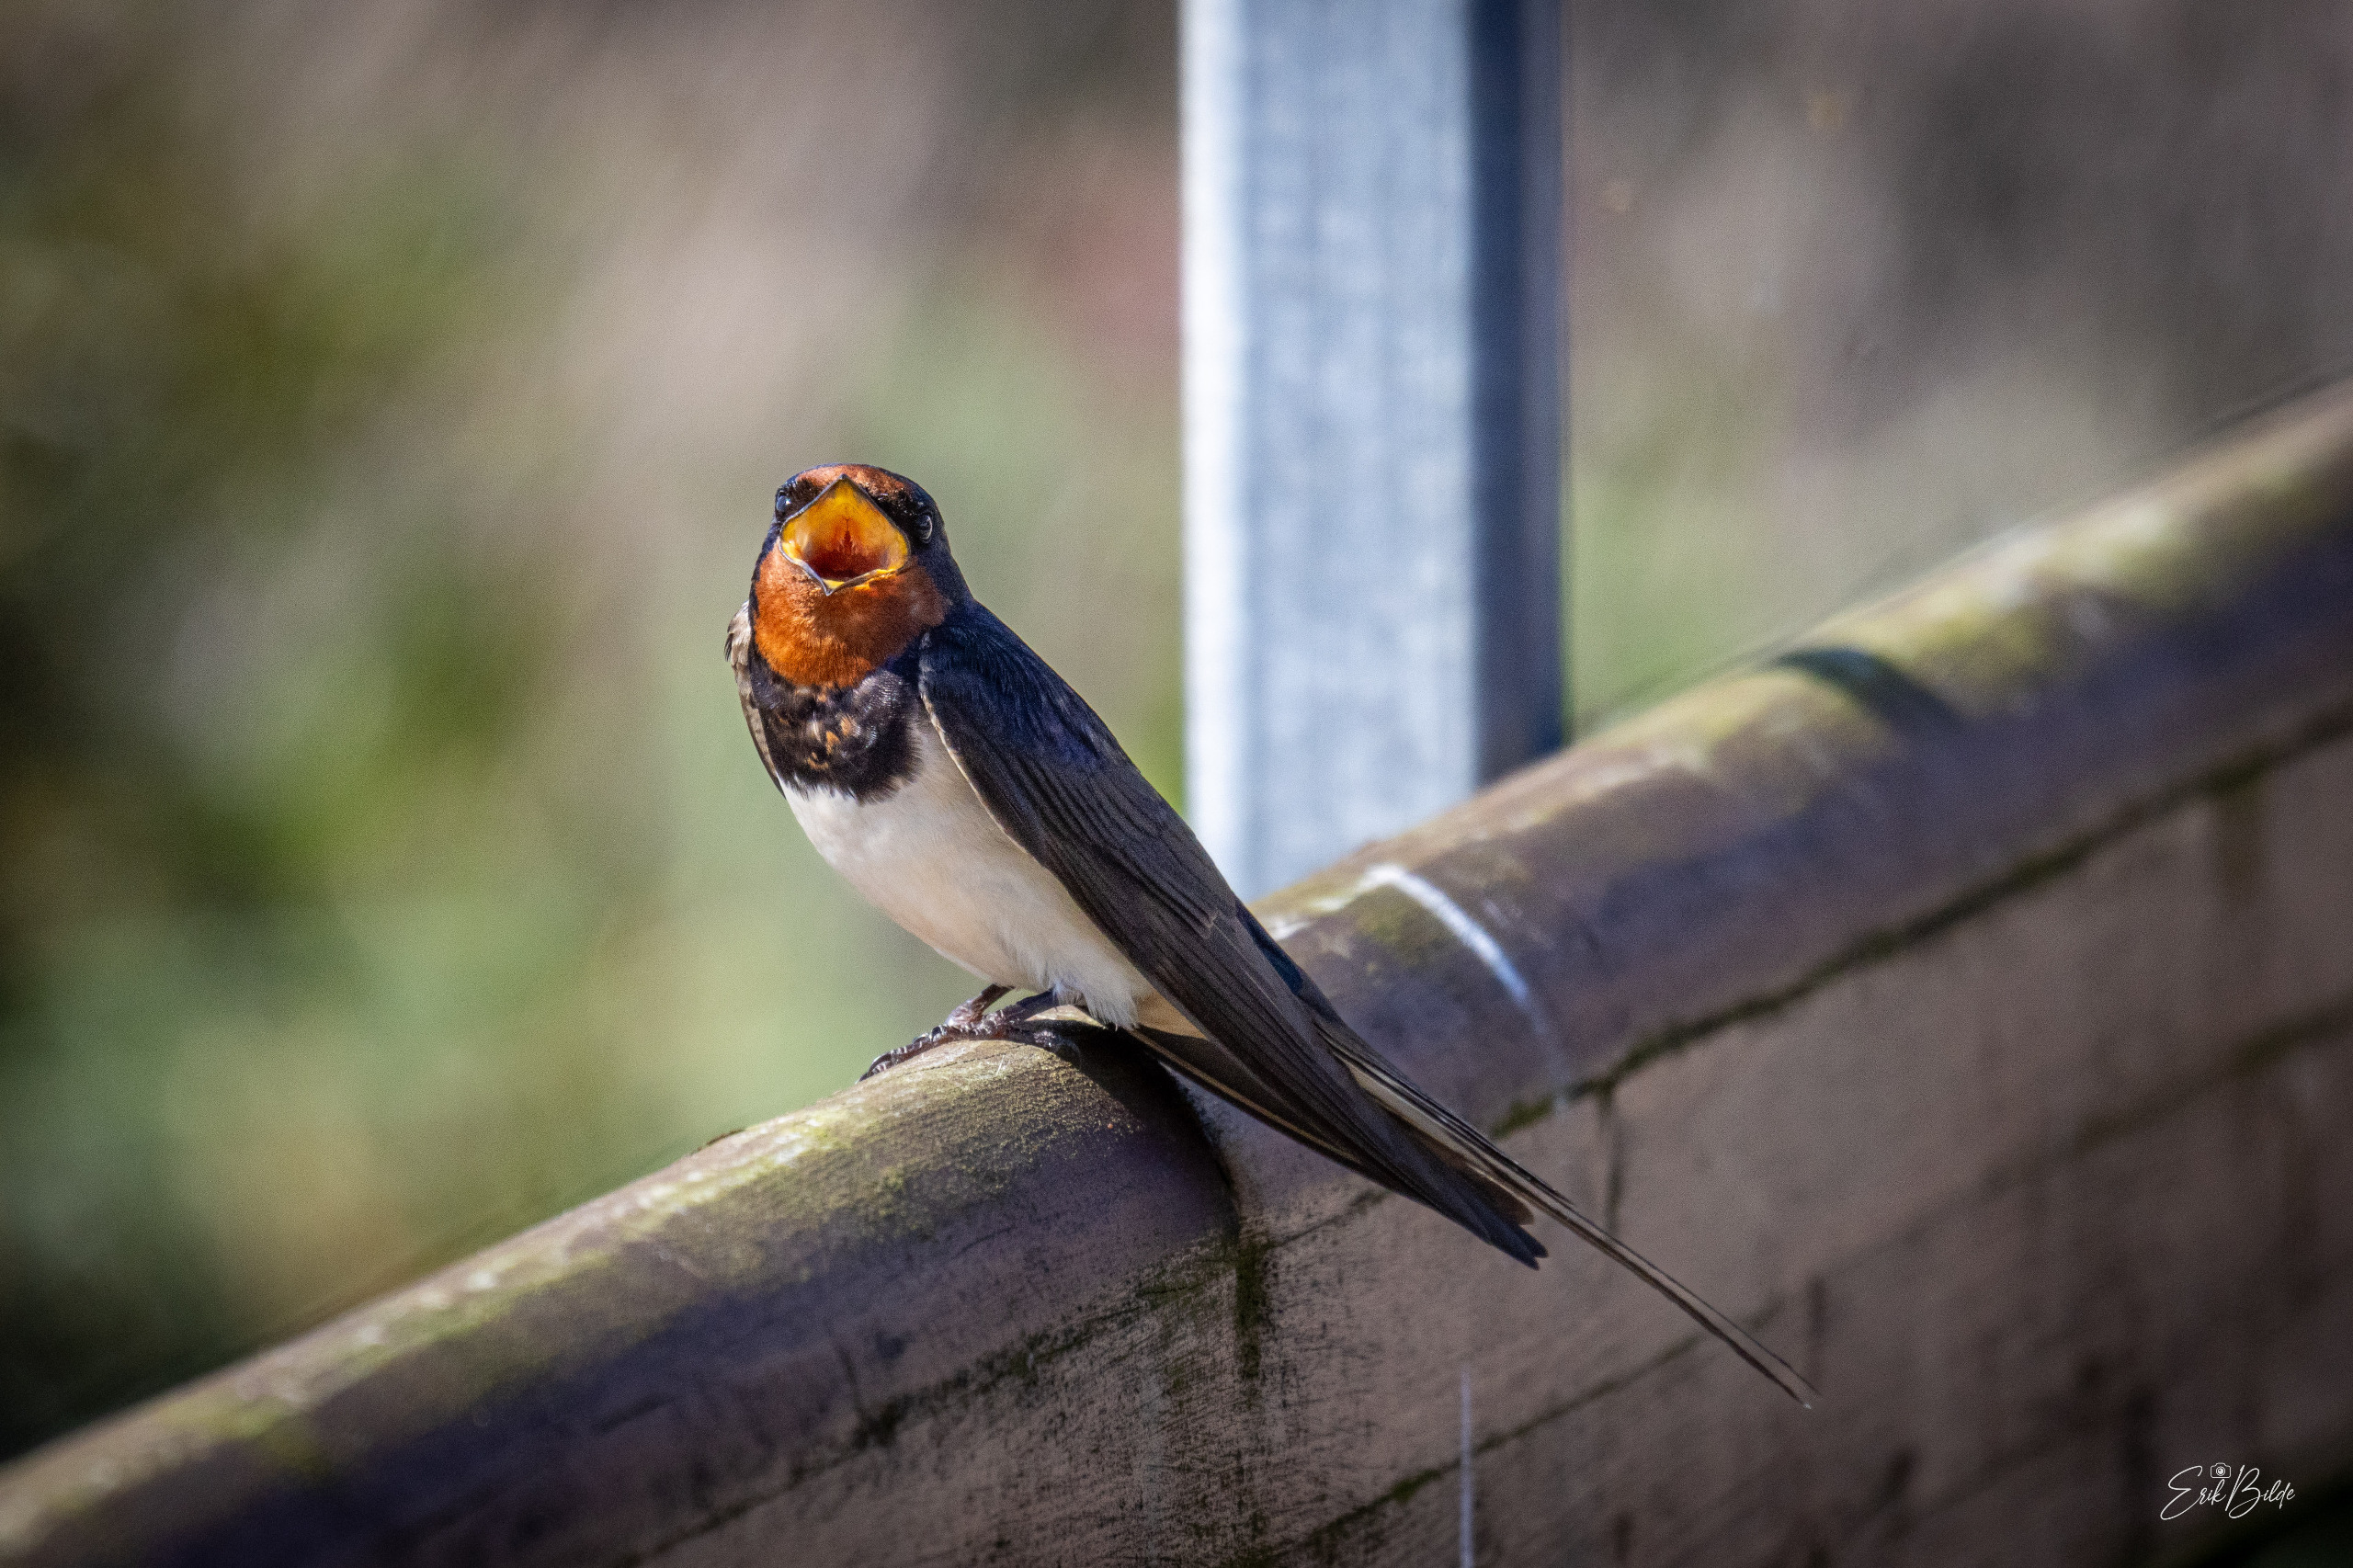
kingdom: Animalia
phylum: Chordata
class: Aves
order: Passeriformes
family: Hirundinidae
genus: Hirundo
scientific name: Hirundo rustica
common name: Landsvale
